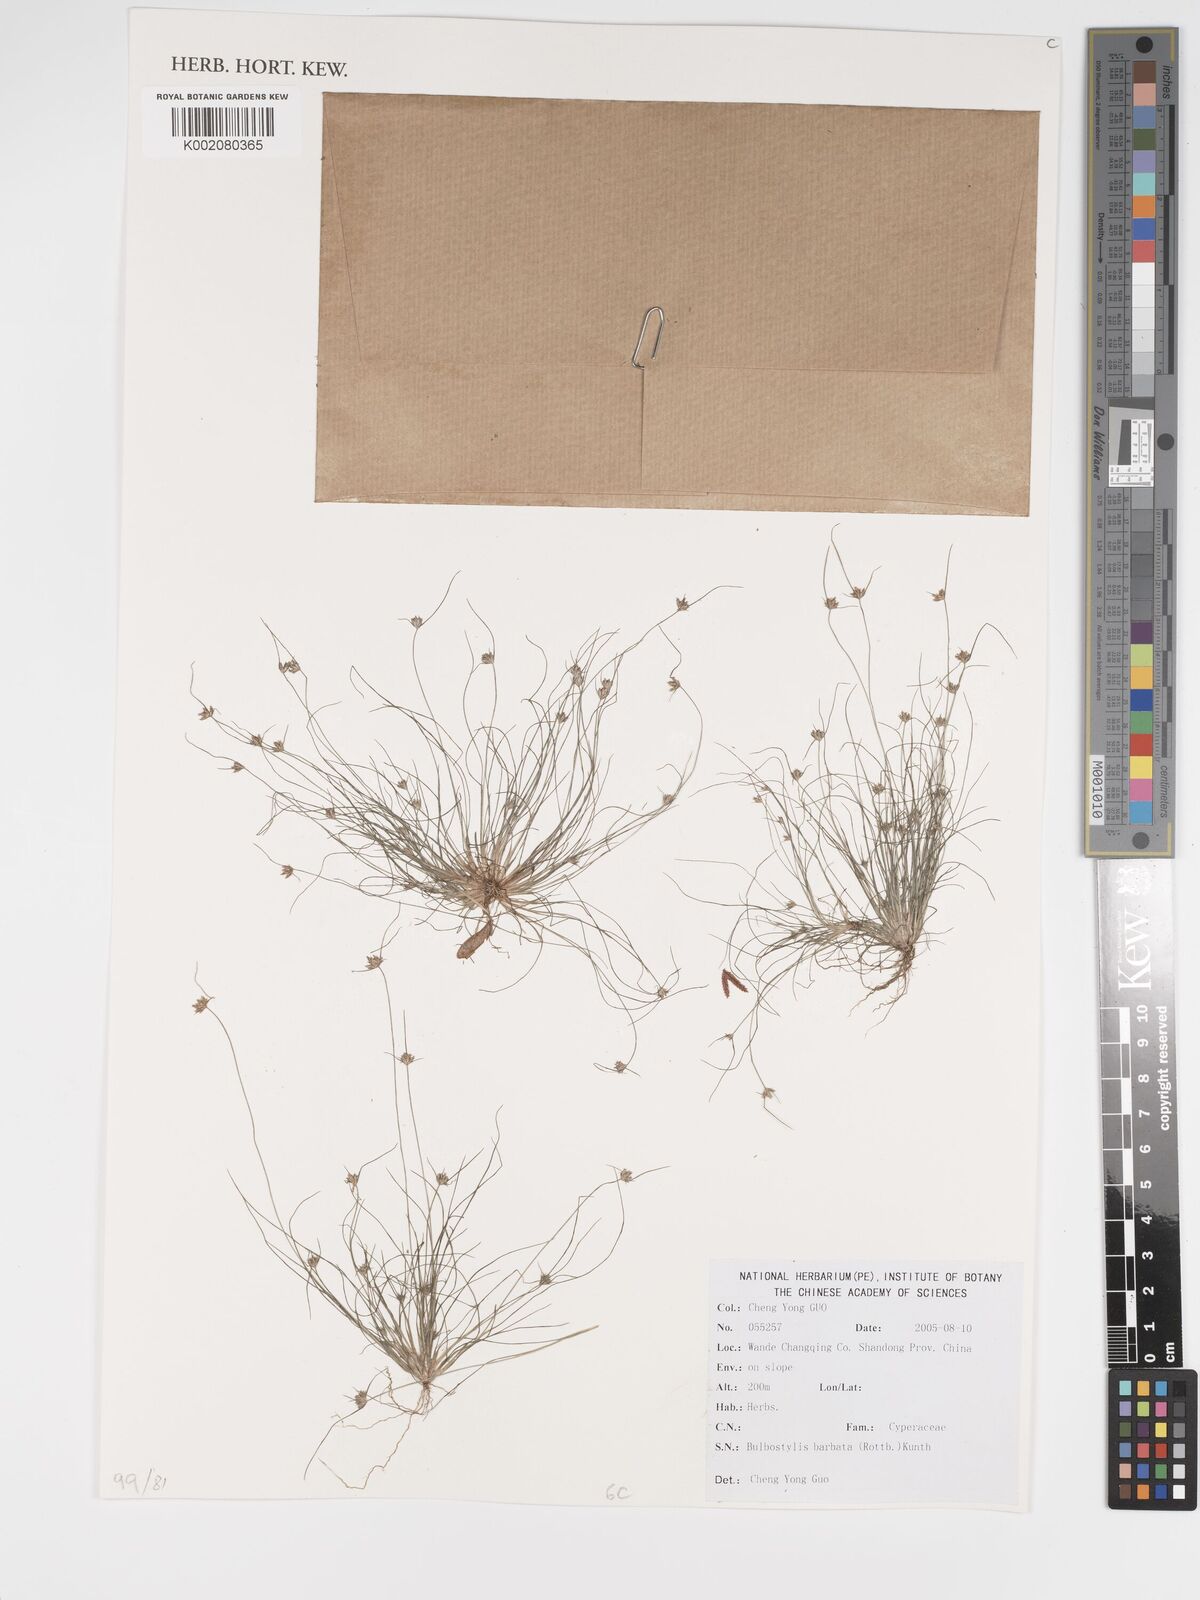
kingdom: Plantae
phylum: Tracheophyta
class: Liliopsida
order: Poales
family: Cyperaceae
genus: Bulbostylis
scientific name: Bulbostylis barbata
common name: Watergrass
